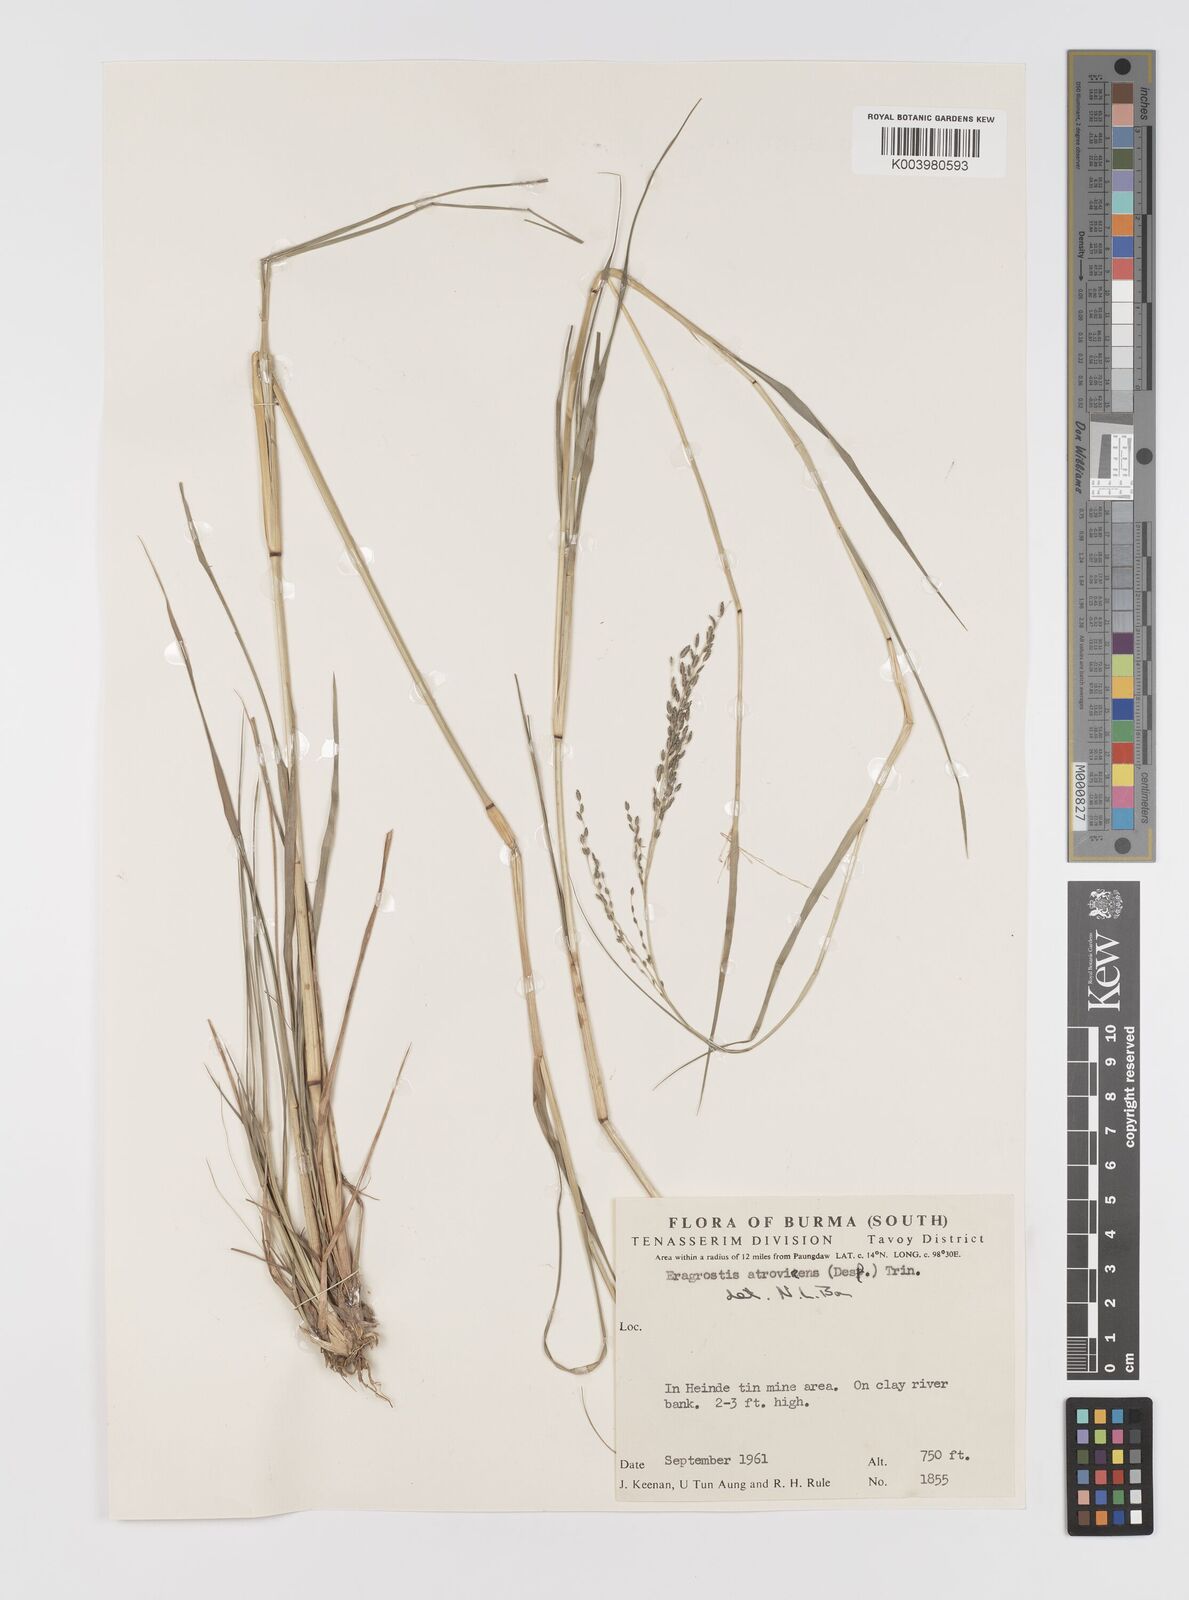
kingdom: Plantae
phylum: Tracheophyta
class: Liliopsida
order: Poales
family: Poaceae
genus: Eragrostis
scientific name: Eragrostis atrovirens
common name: Thalia lovegrass
